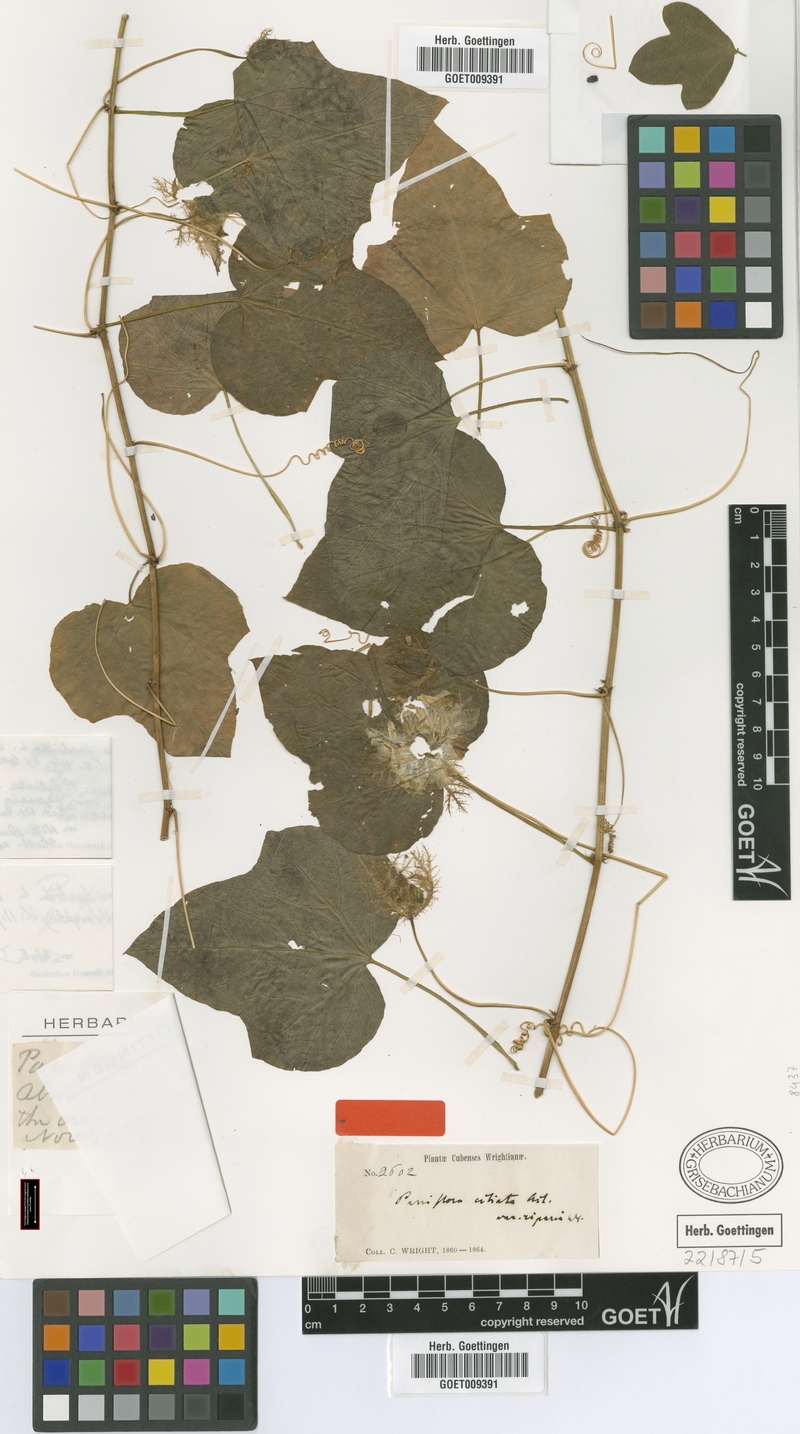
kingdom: Plantae
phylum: Tracheophyta
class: Magnoliopsida
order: Malpighiales
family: Passifloraceae
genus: Passiflora
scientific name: Passiflora ciliata
